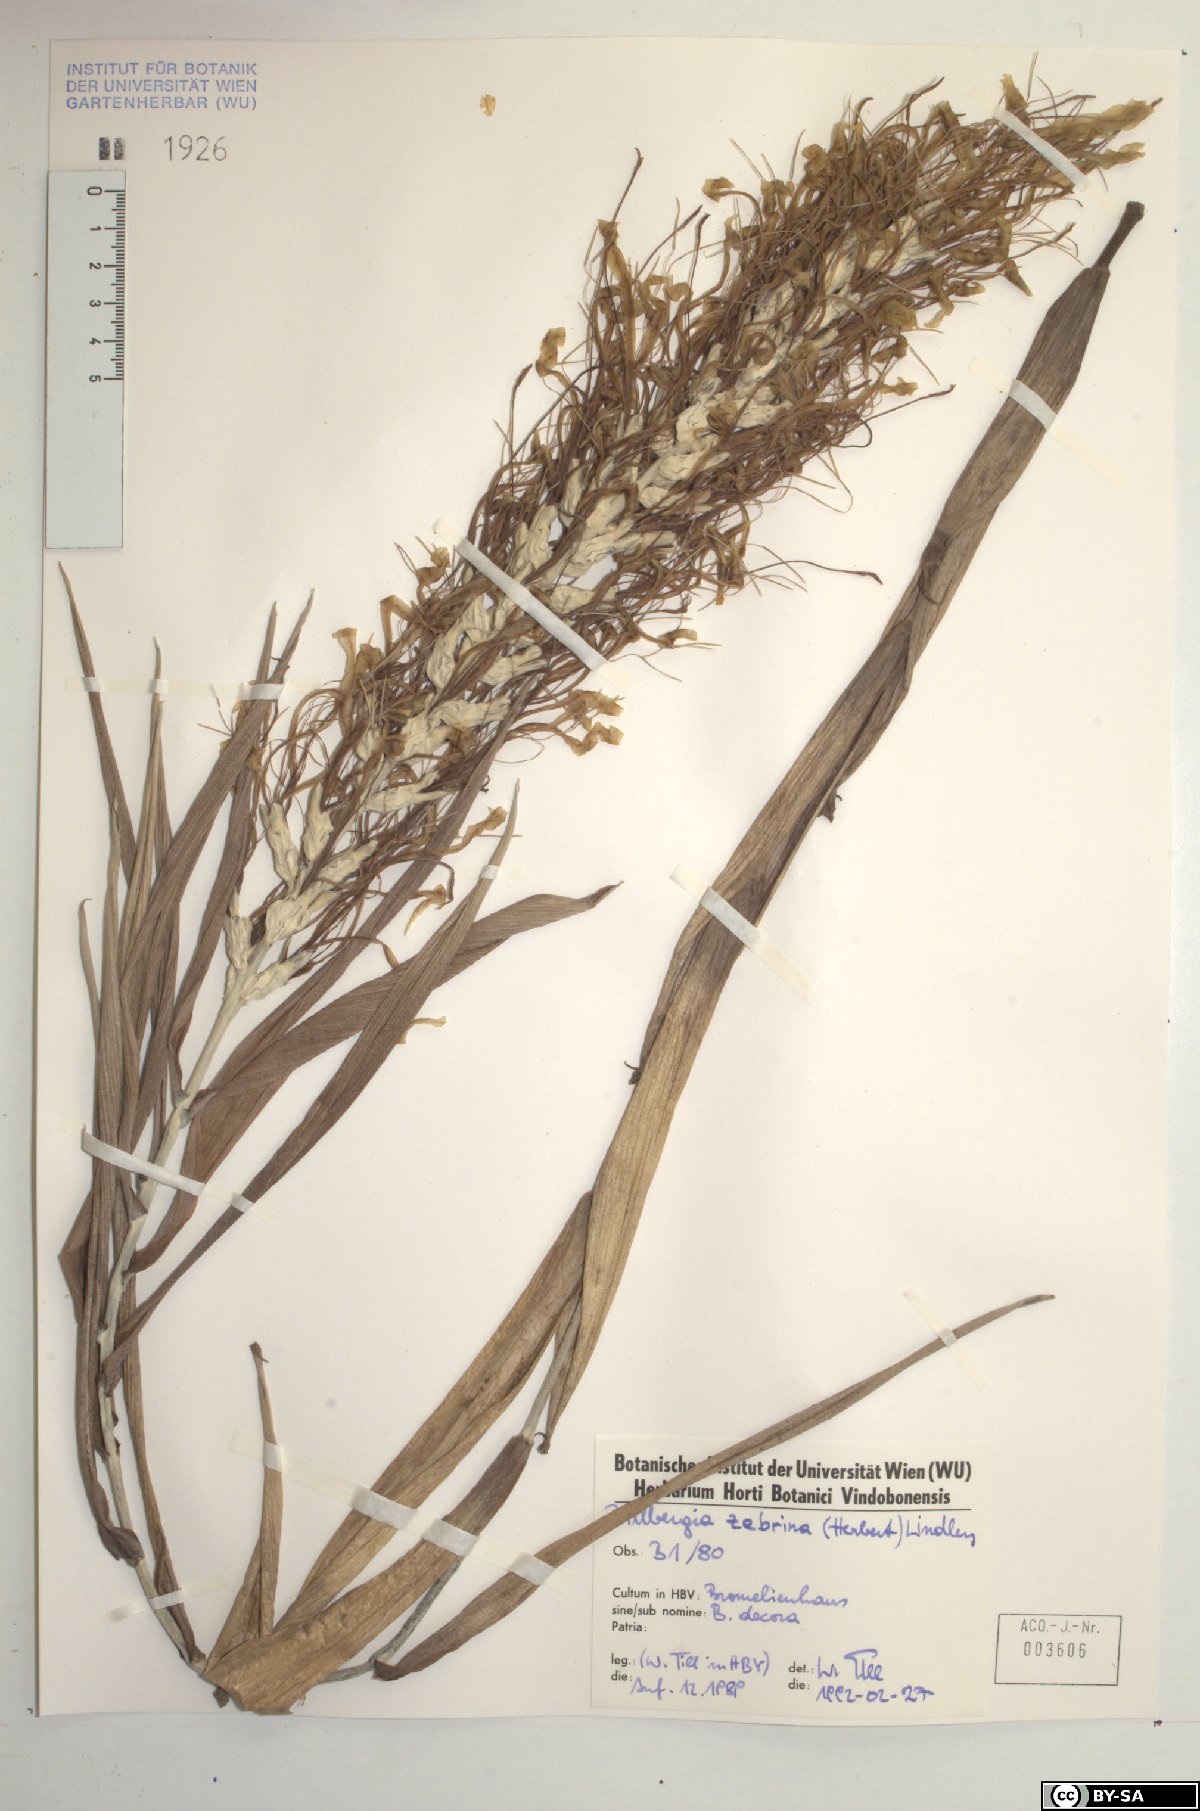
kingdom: Plantae
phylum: Tracheophyta
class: Liliopsida
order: Poales
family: Bromeliaceae
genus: Billbergia
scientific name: Billbergia zebrina
